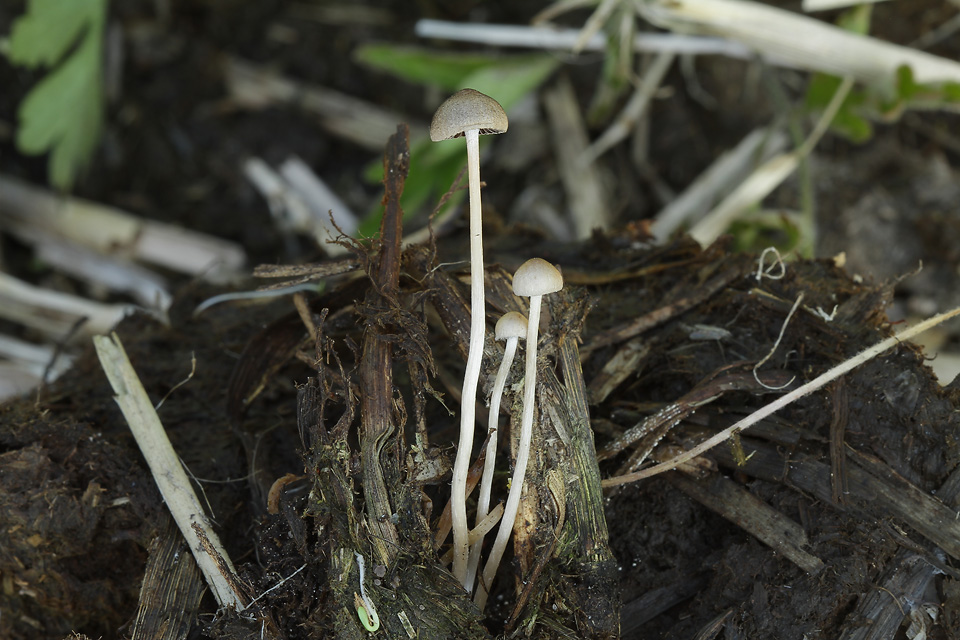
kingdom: Fungi
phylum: Basidiomycota
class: Agaricomycetes
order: Agaricales
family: Psathyrellaceae
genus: Psathyrella
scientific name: Psathyrella potteri
